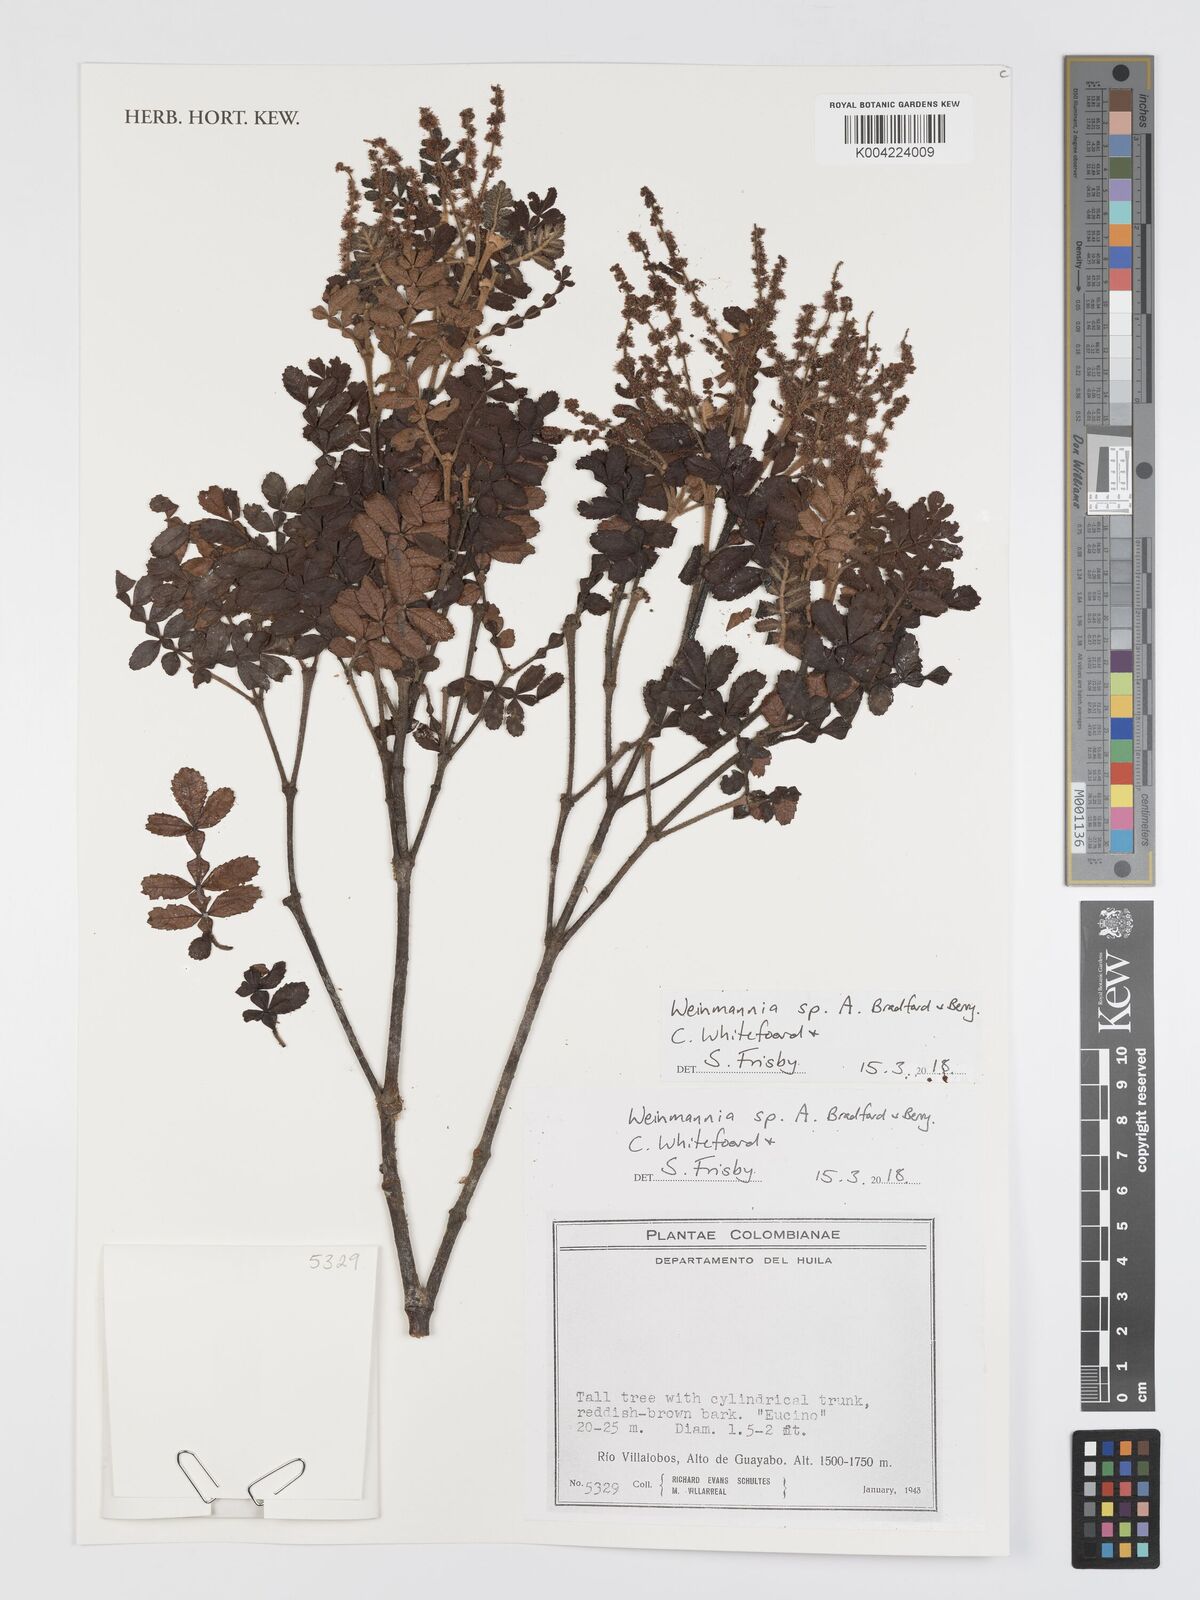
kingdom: Plantae
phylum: Tracheophyta
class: Magnoliopsida
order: Oxalidales
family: Cunoniaceae
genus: Weinmannia
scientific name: Weinmannia
